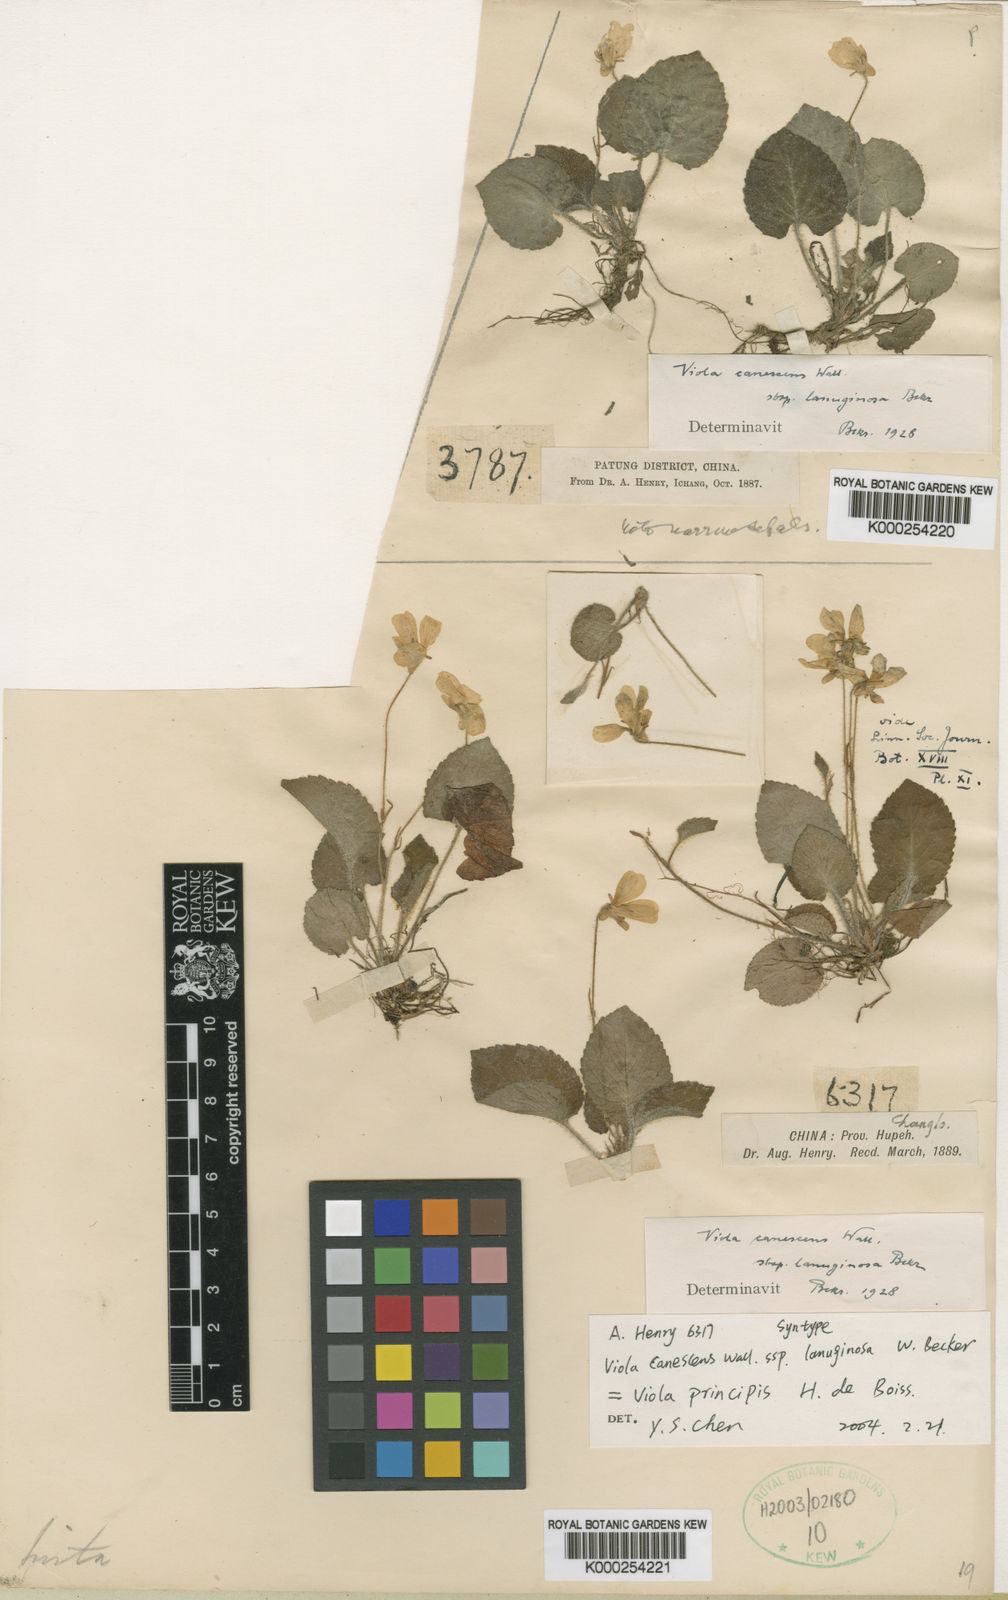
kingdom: Plantae
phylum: Tracheophyta
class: Magnoliopsida
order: Malpighiales
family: Violaceae
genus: Viola
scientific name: Viola canescens
